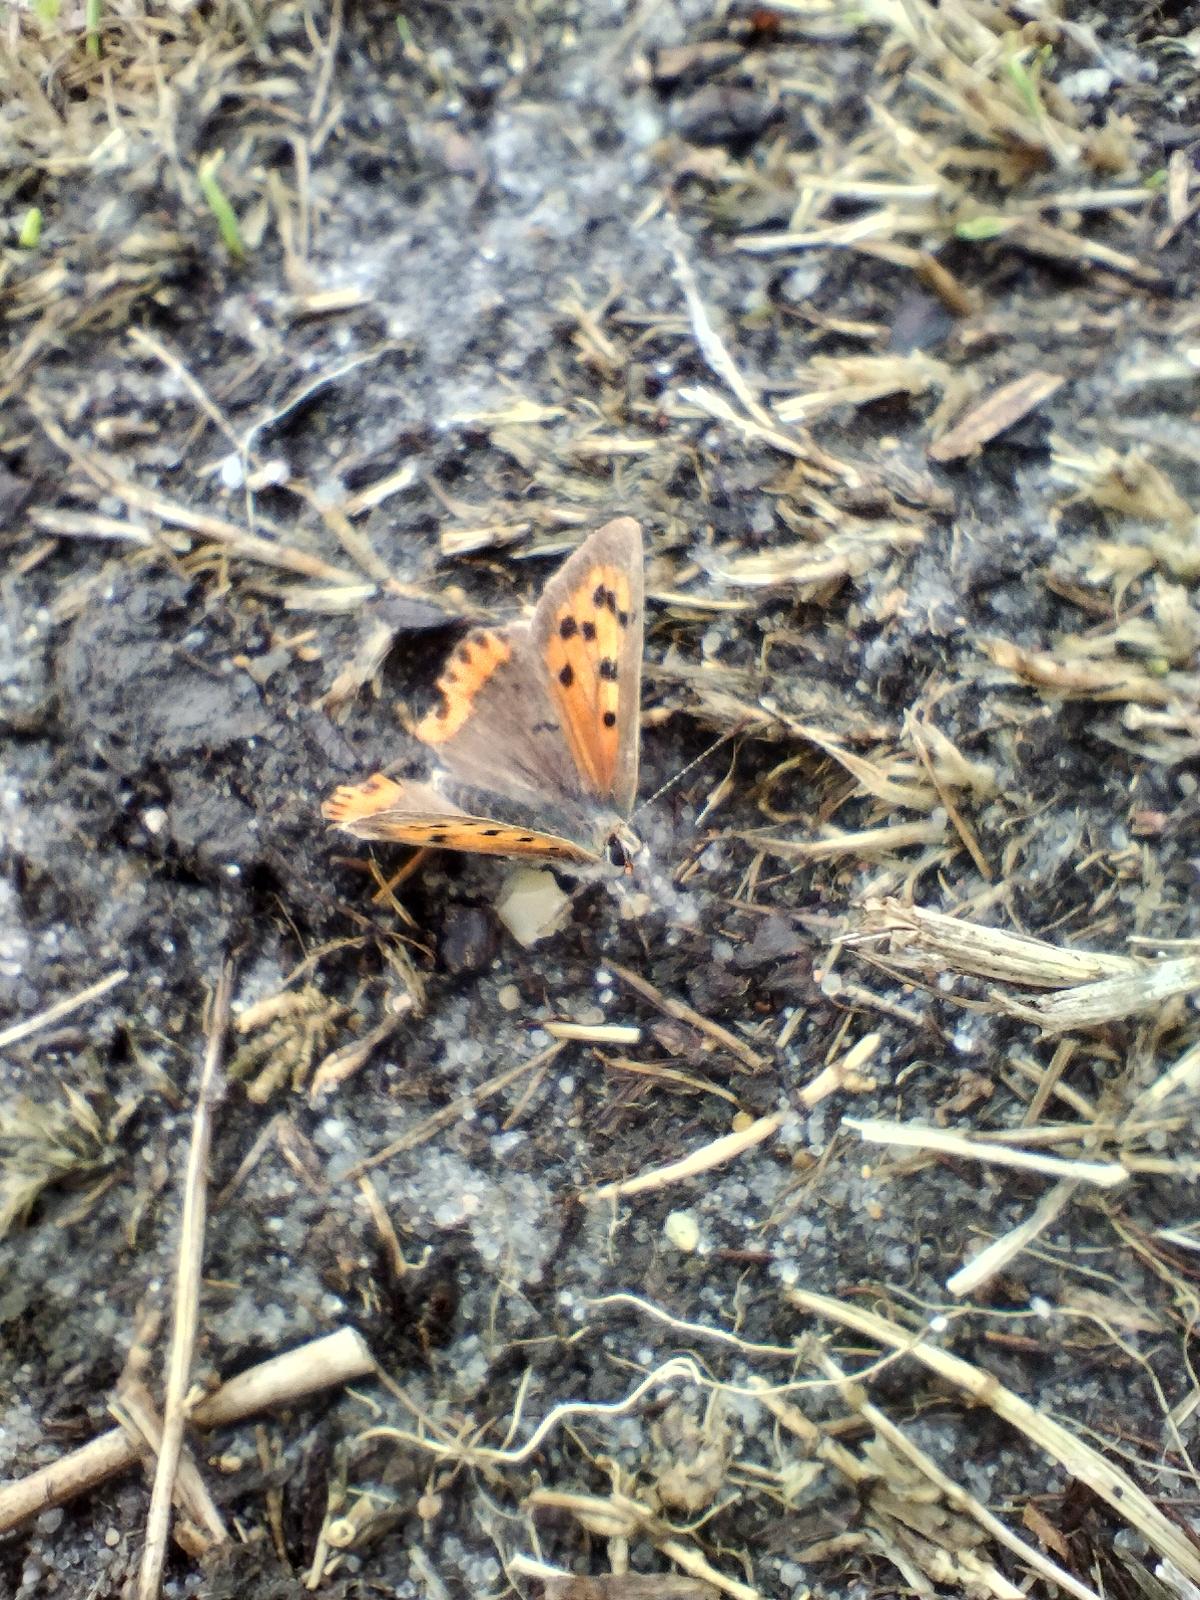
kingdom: Animalia
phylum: Arthropoda
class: Insecta
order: Lepidoptera
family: Lycaenidae
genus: Lycaena
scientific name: Lycaena phlaeas
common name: Lille ildfugl
